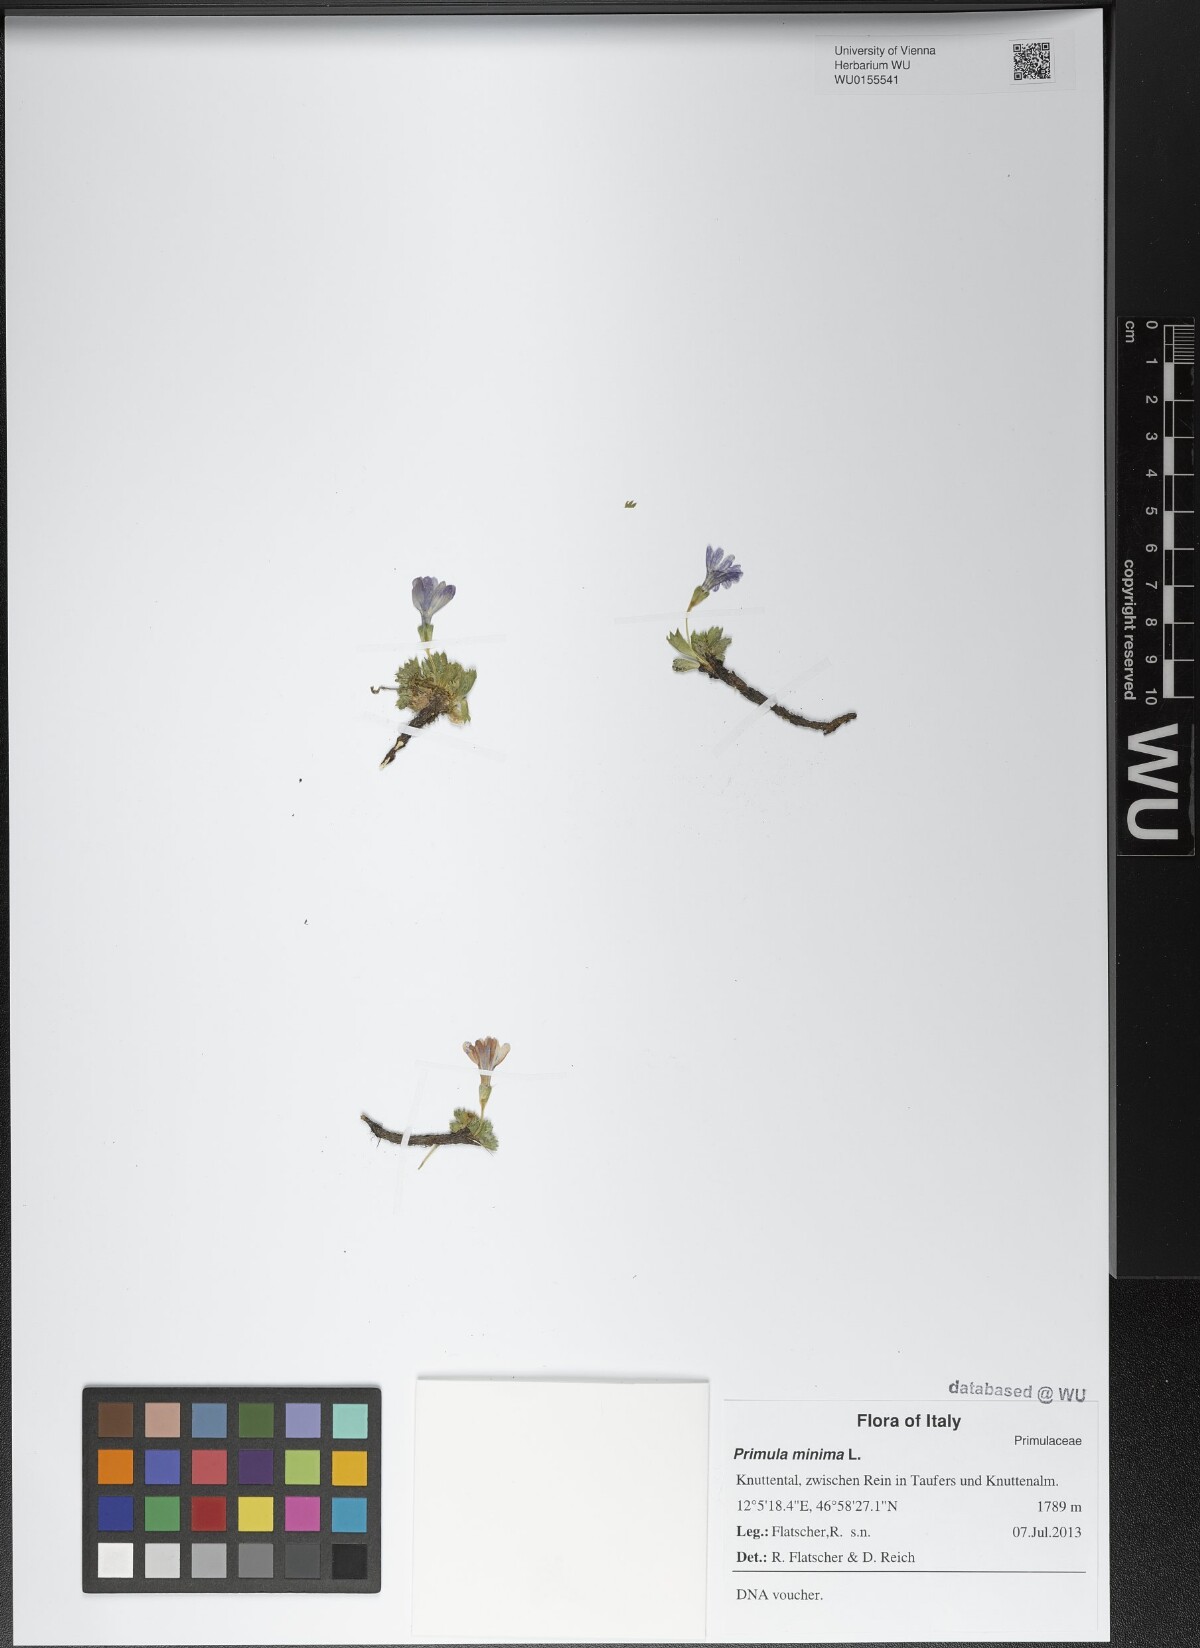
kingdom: Plantae
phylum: Tracheophyta
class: Magnoliopsida
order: Ericales
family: Primulaceae
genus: Primula
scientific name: Primula minima
